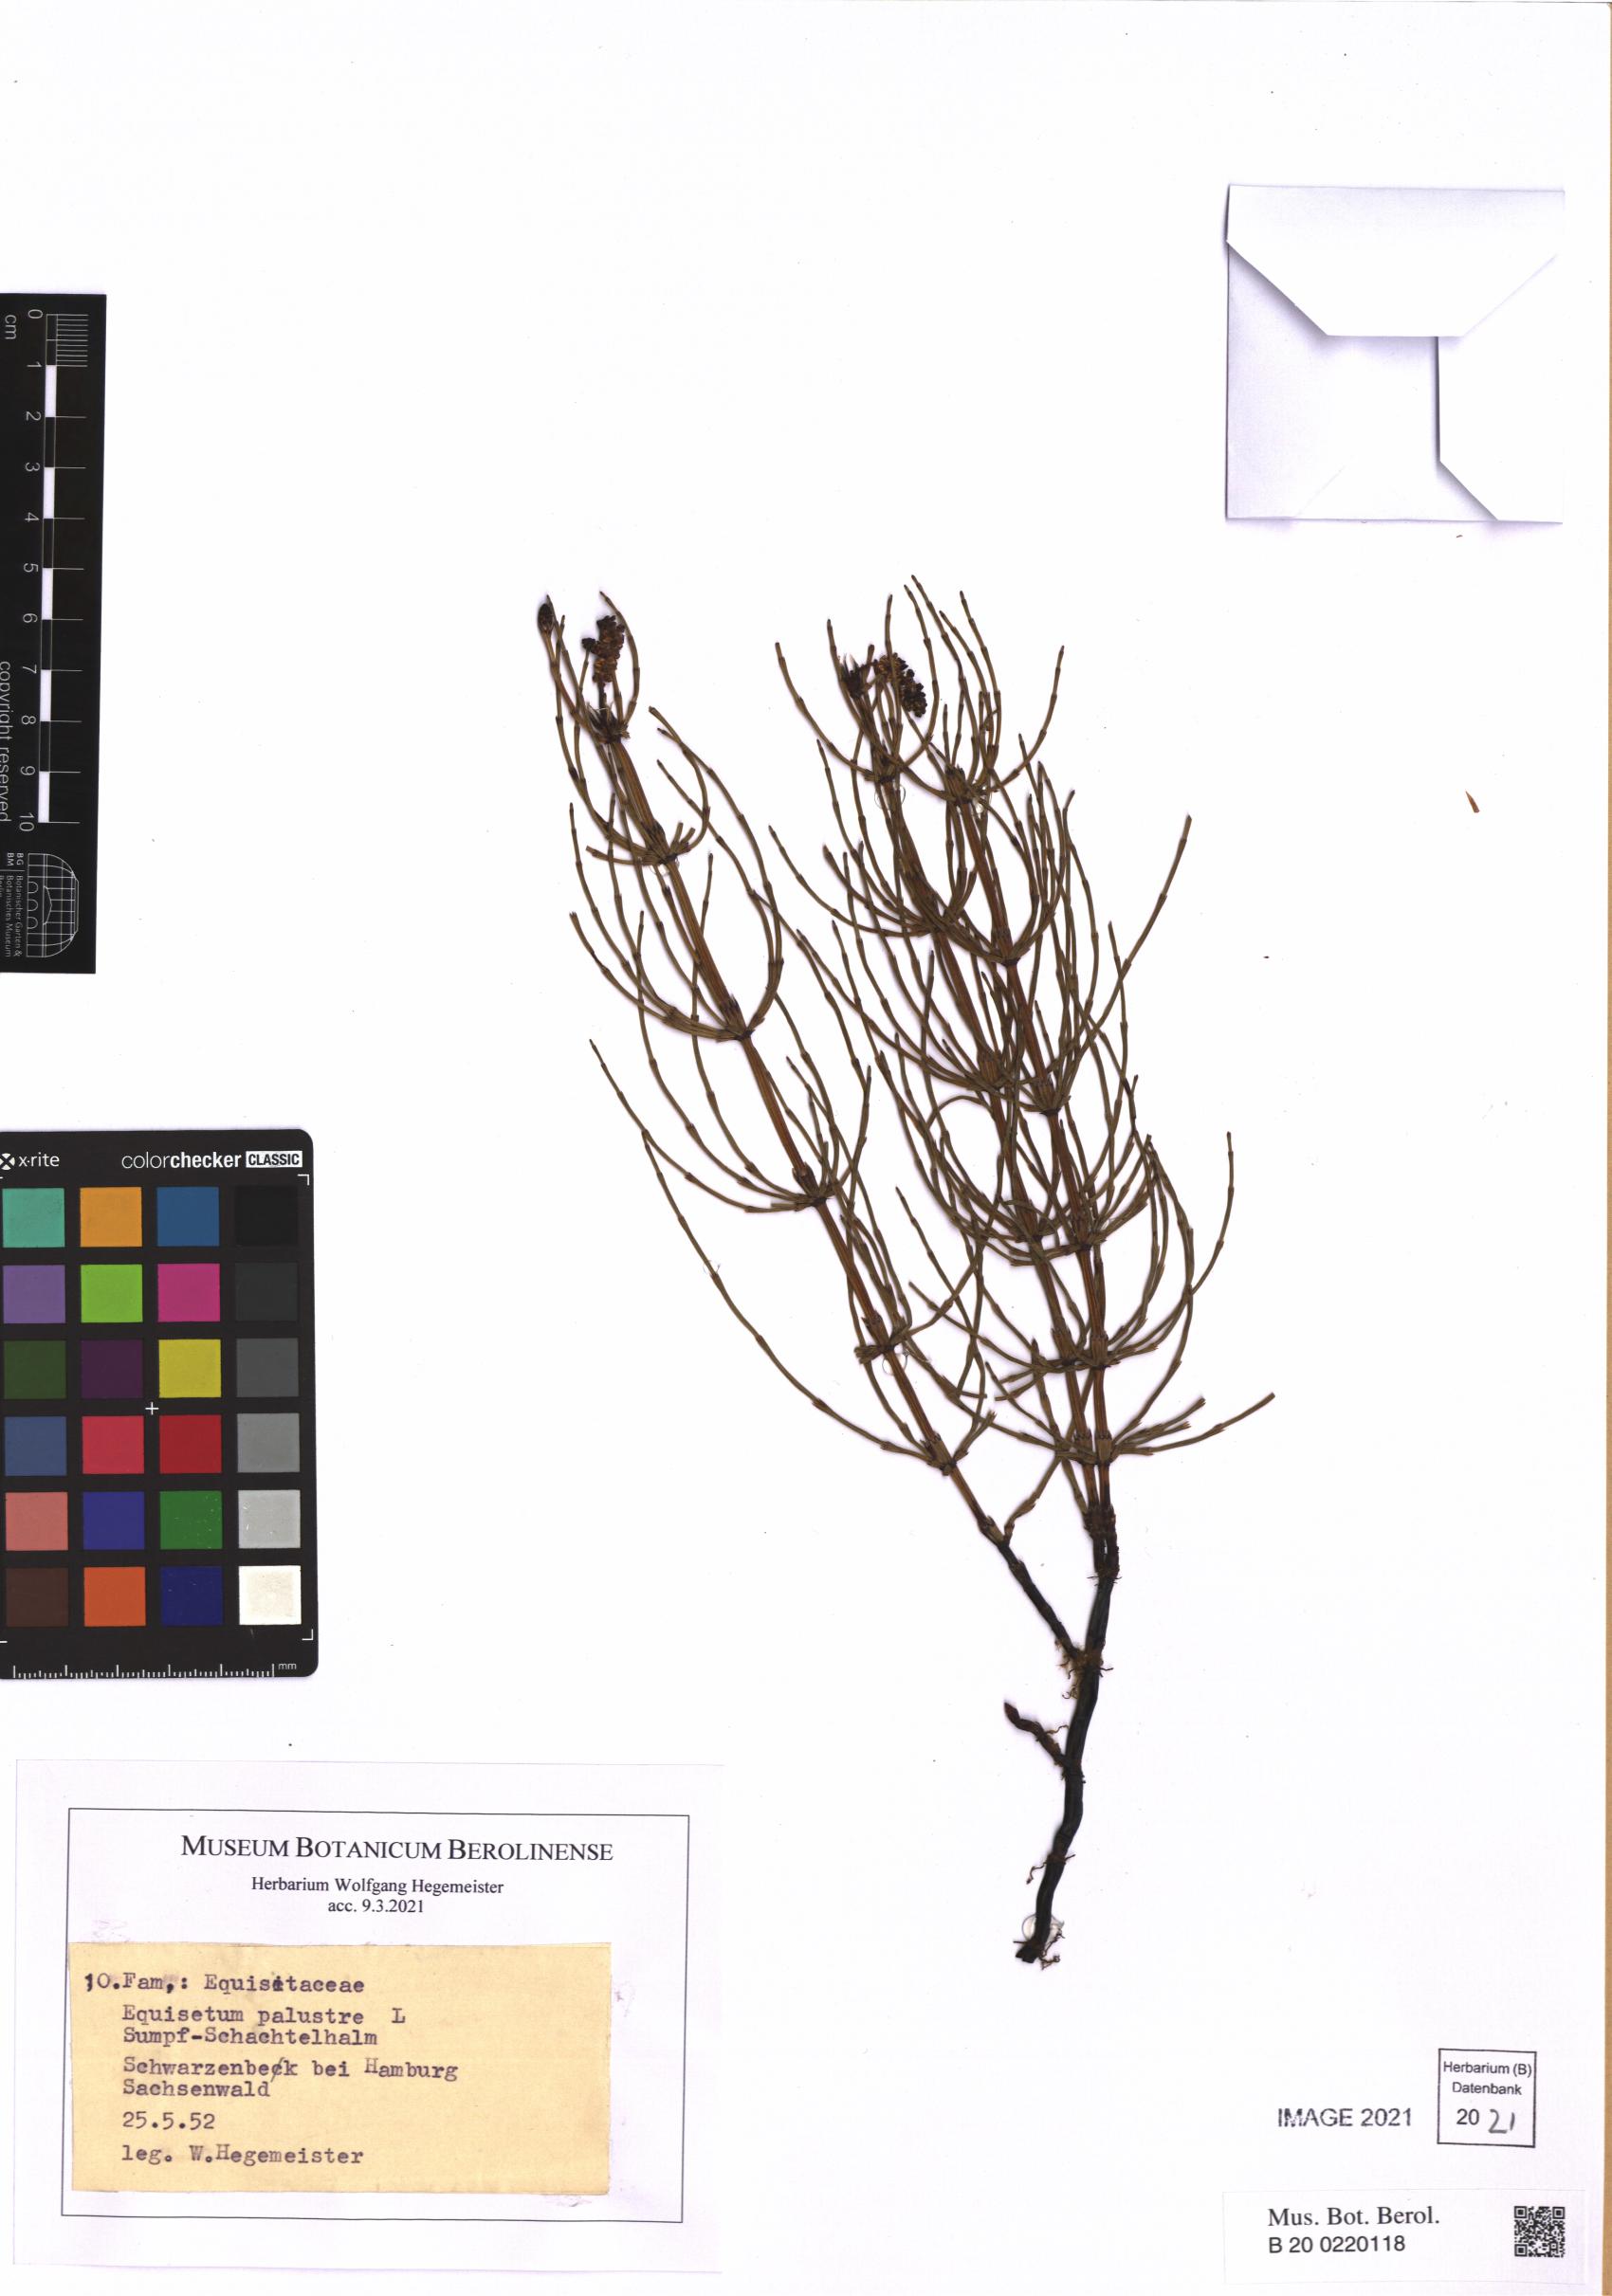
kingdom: Plantae
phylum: Tracheophyta
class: Polypodiopsida
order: Equisetales
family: Equisetaceae
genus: Equisetum
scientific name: Equisetum palustre
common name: Marsh horsetail
